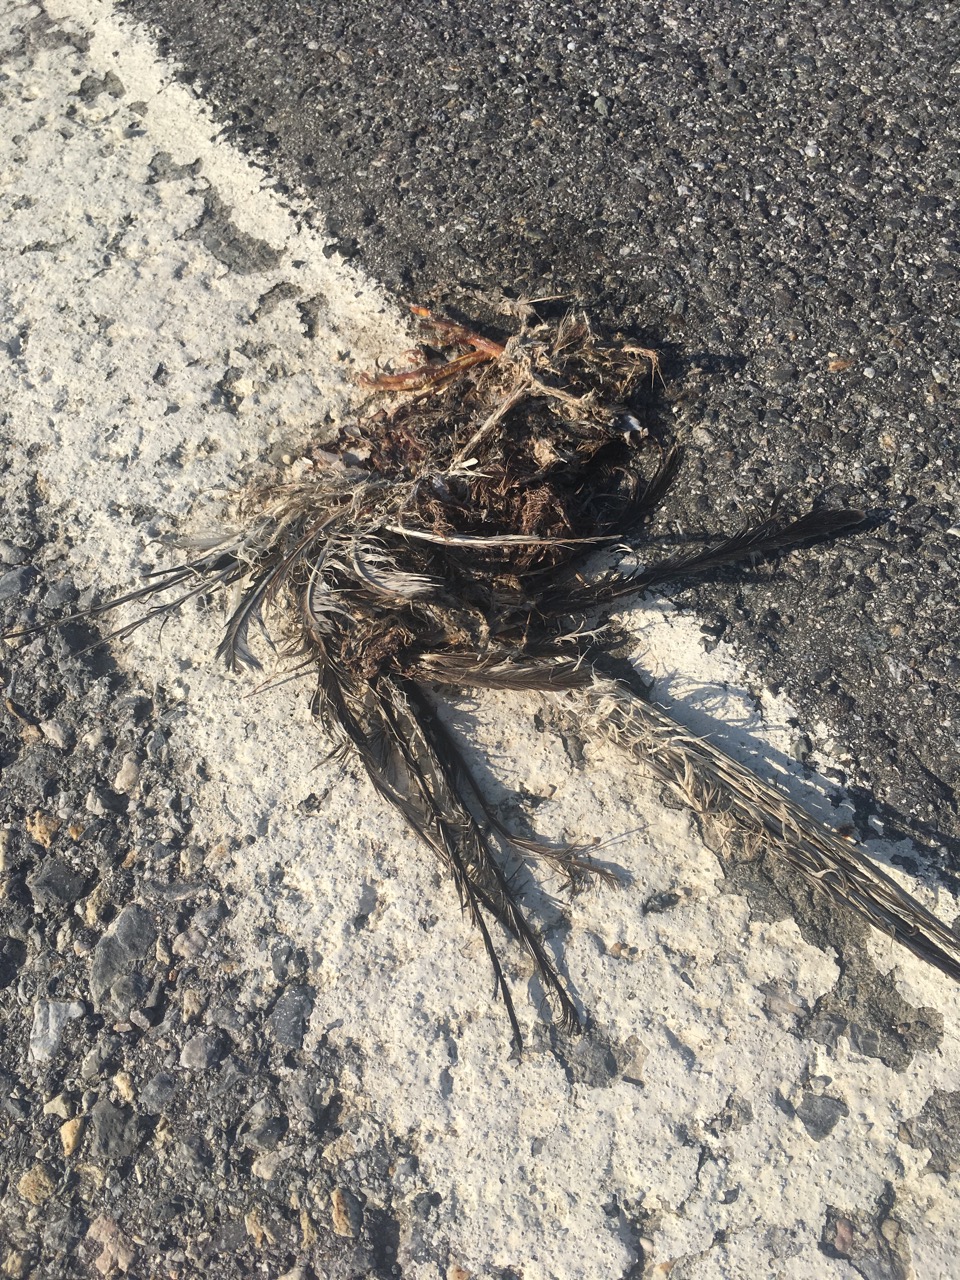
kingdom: Animalia
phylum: Chordata
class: Aves
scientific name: Aves
